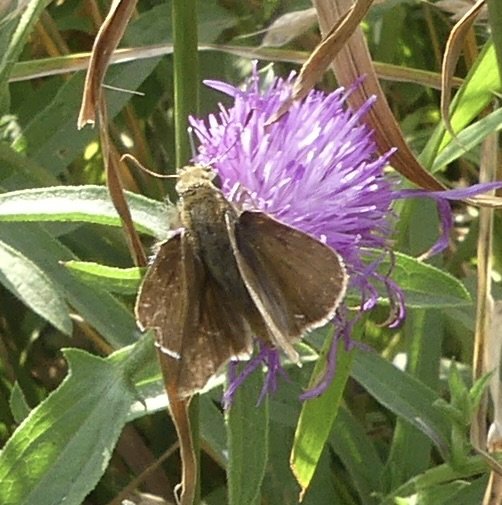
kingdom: Animalia
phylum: Arthropoda
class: Insecta
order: Lepidoptera
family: Hesperiidae
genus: Euphyes
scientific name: Euphyes vestris
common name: Dun Skipper
